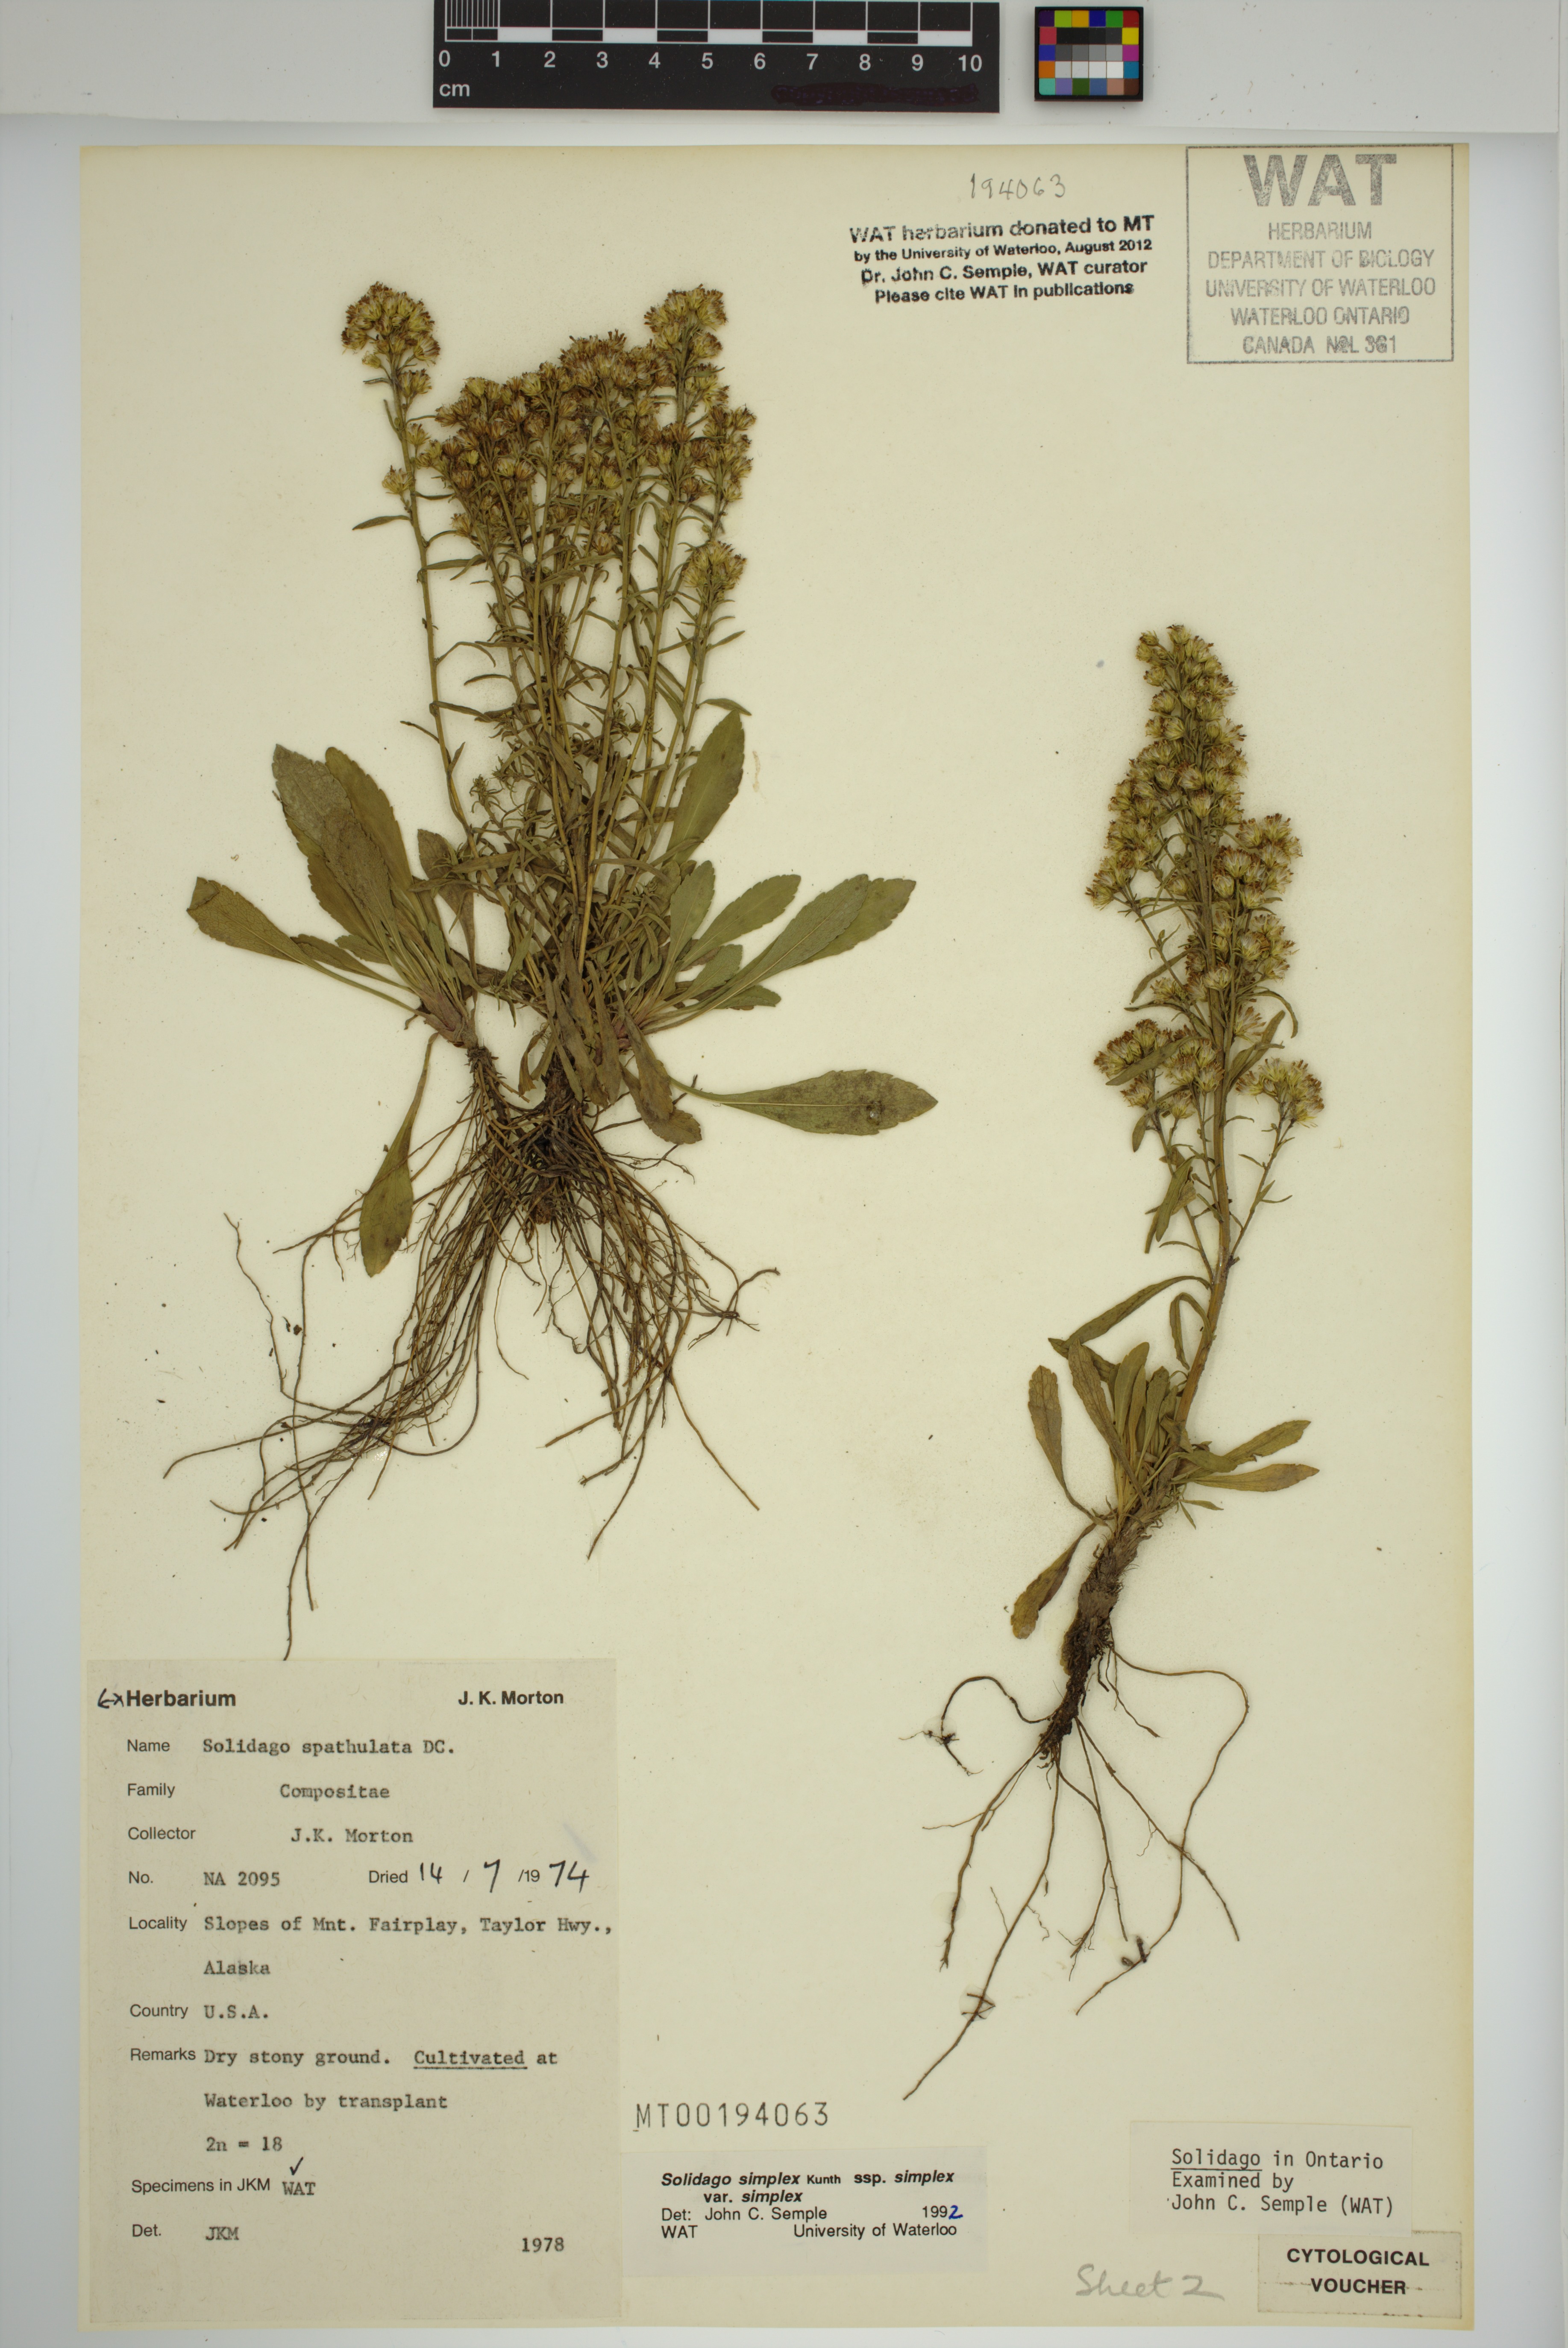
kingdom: Plantae
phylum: Tracheophyta
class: Magnoliopsida
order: Asterales
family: Asteraceae
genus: Solidago
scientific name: Solidago glutinosa
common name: Decumbent goldenrod
